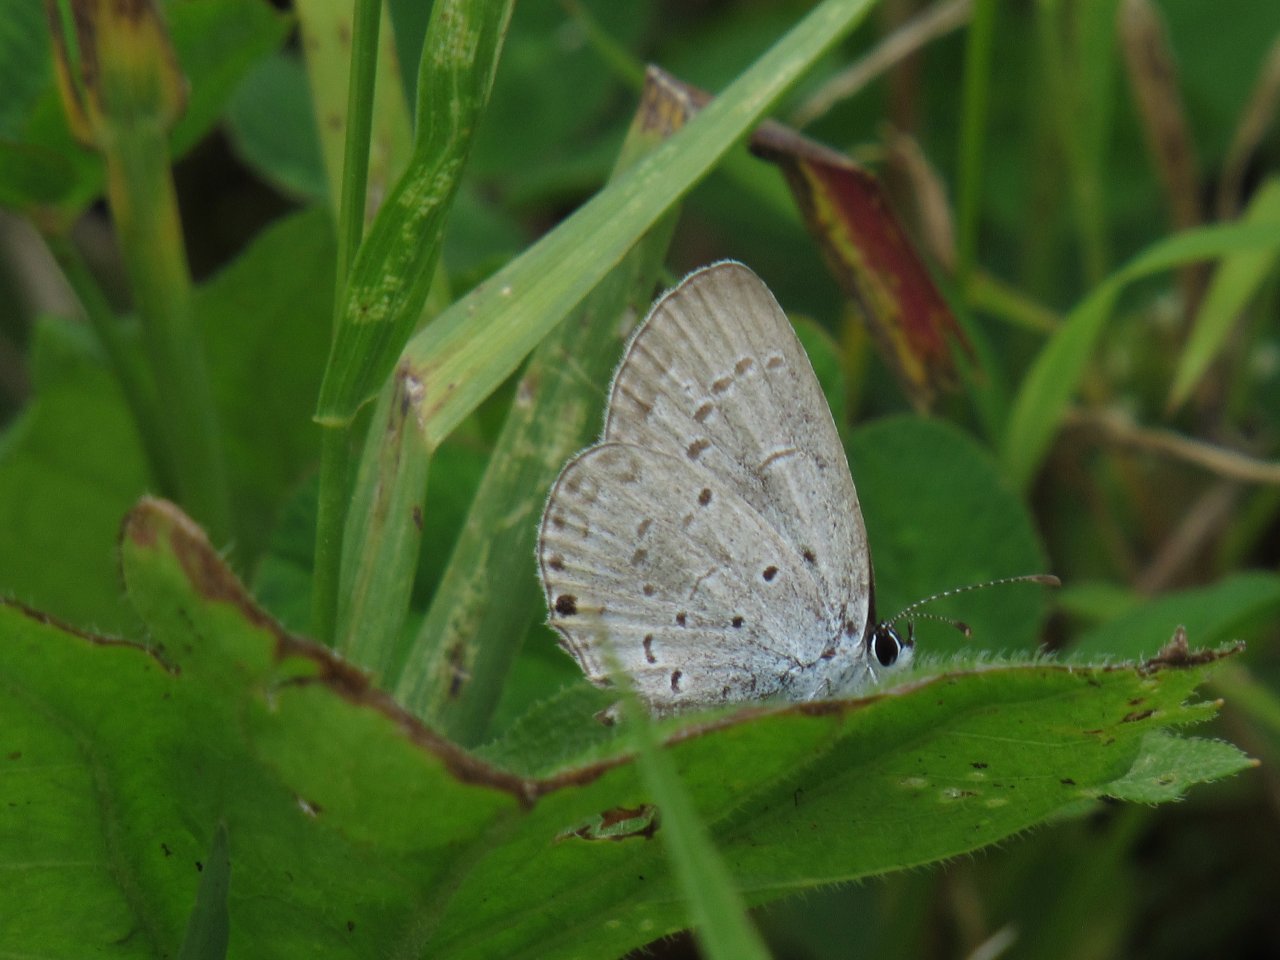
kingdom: Animalia
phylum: Arthropoda
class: Insecta
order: Lepidoptera
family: Lycaenidae
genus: Celastrina
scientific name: Celastrina
